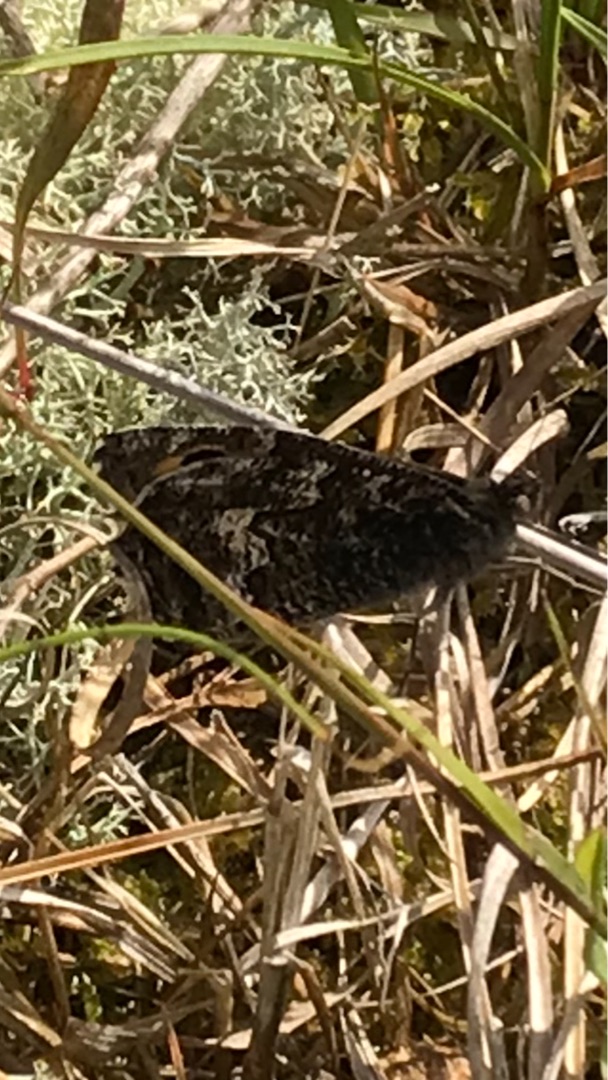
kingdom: Animalia
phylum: Arthropoda
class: Insecta
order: Lepidoptera
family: Nymphalidae
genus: Hipparchia
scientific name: Hipparchia semele
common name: Sandrandøje
